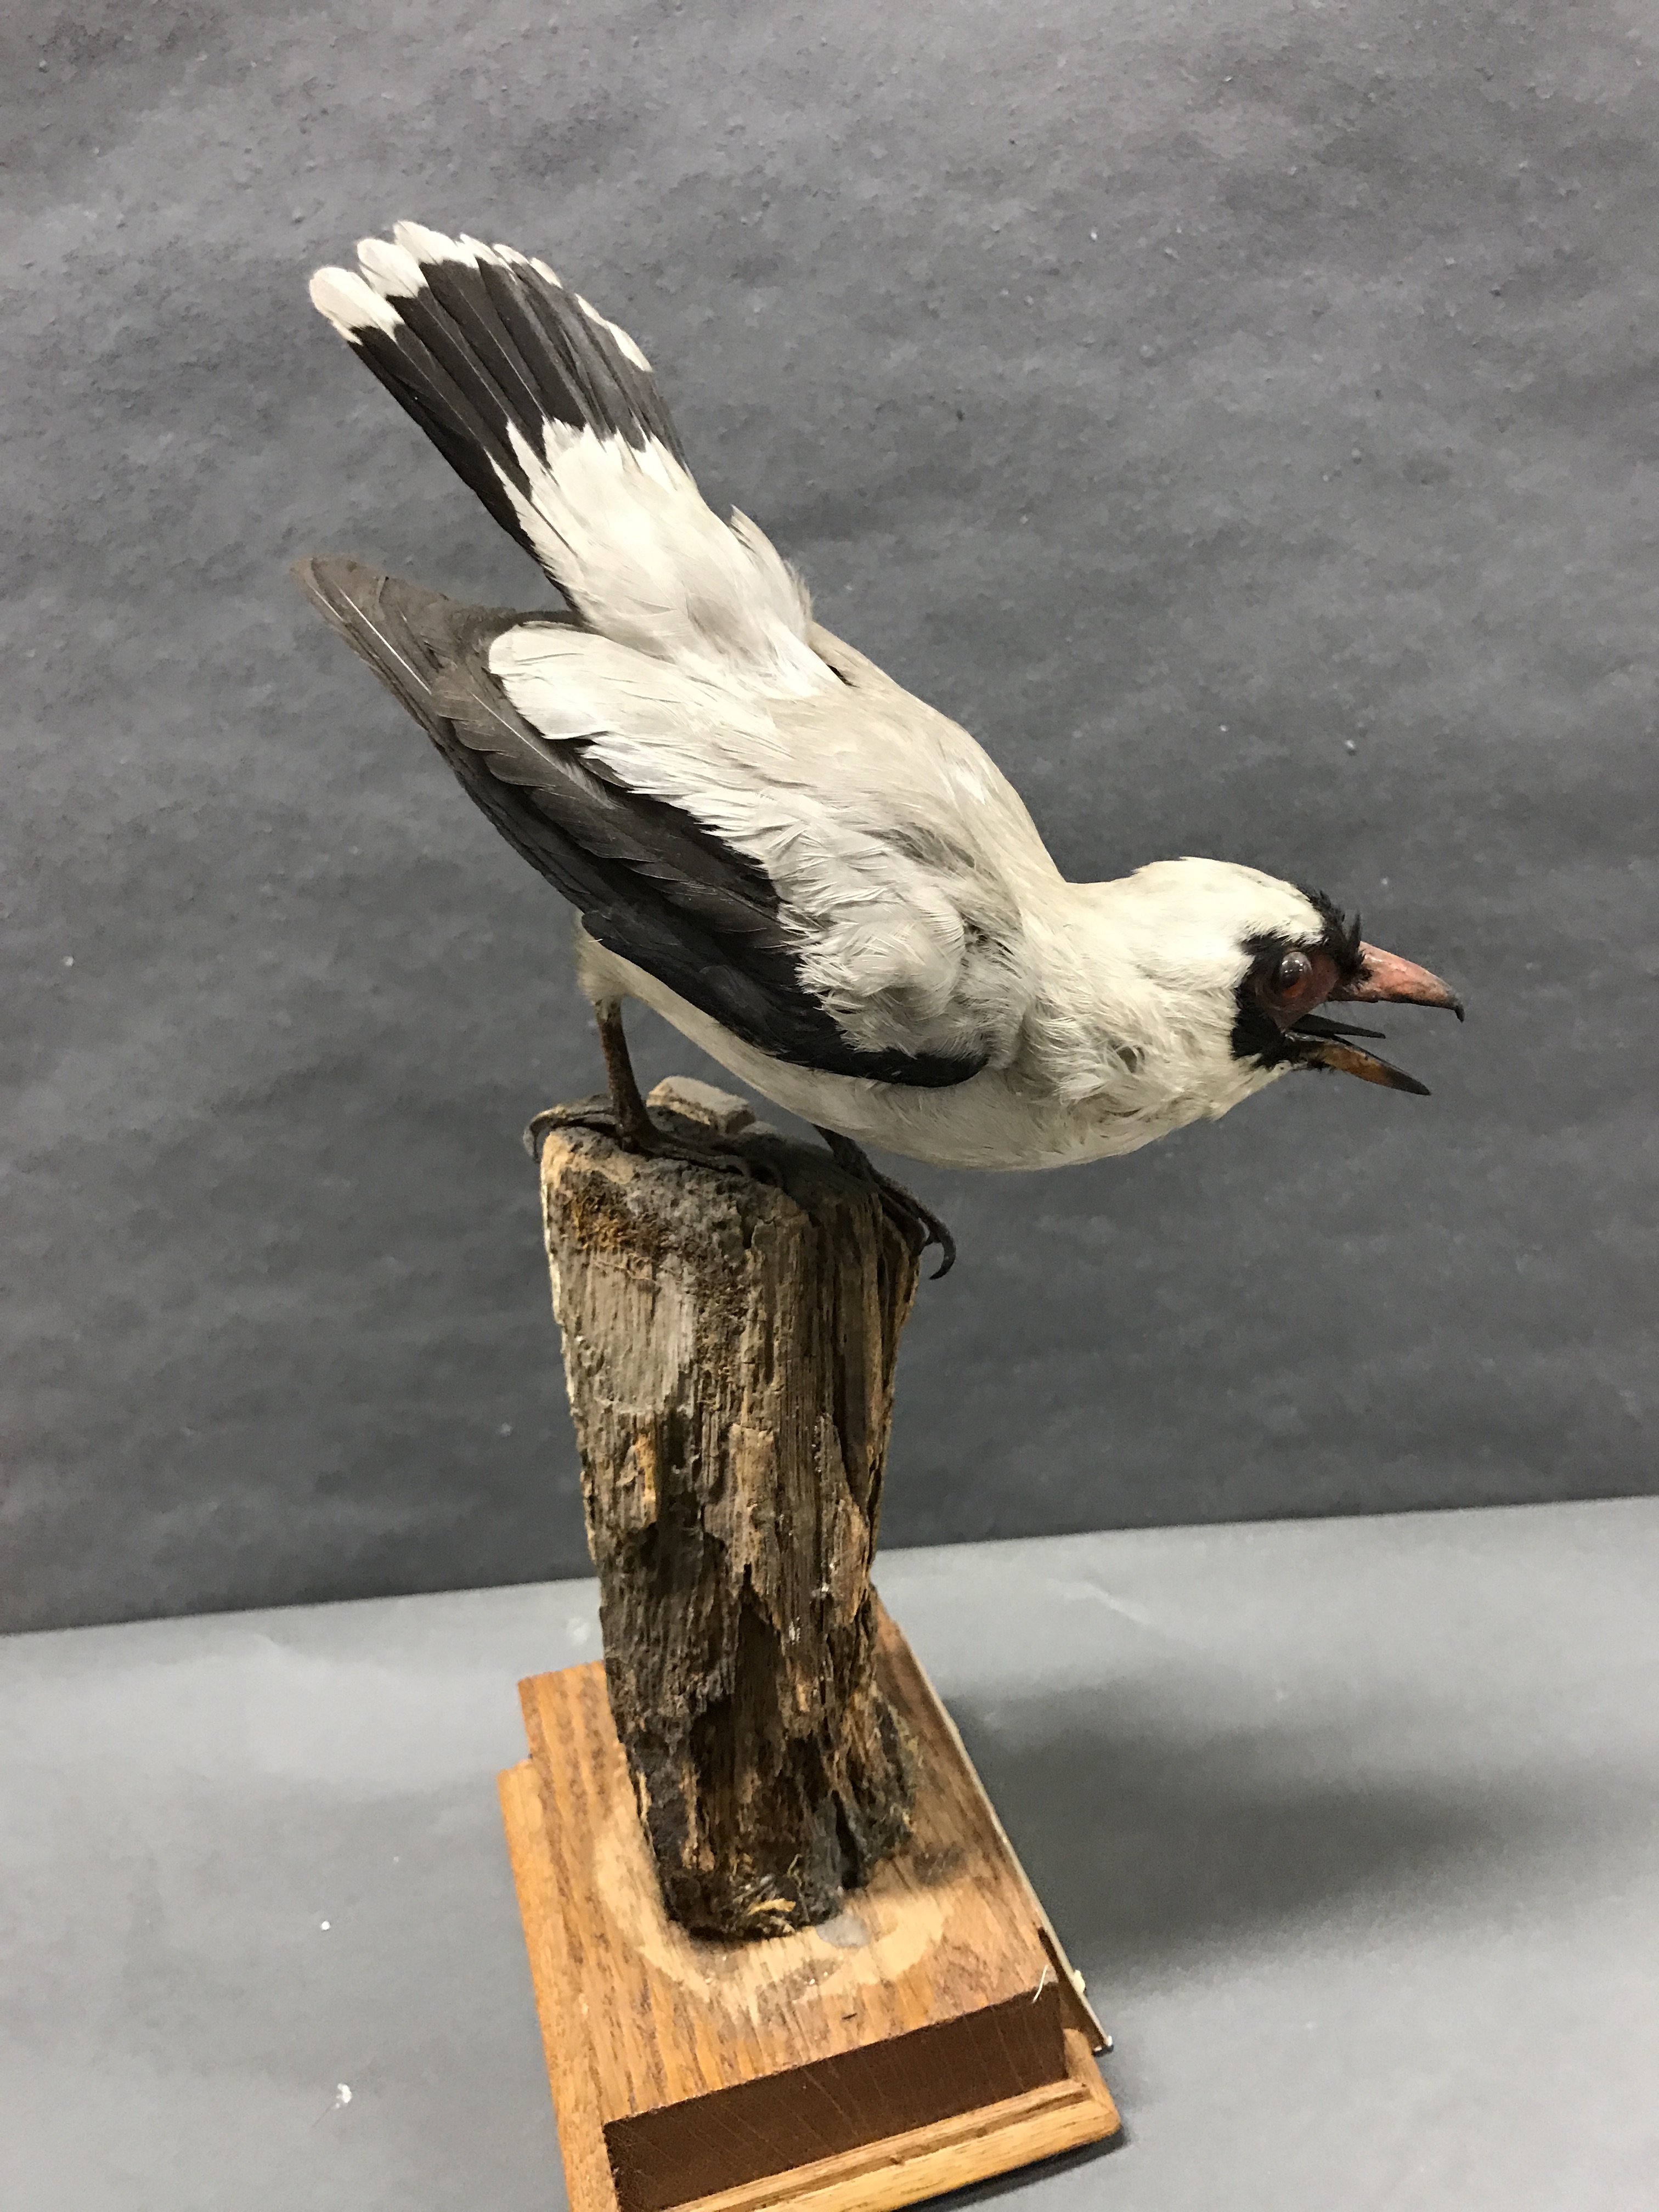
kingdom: Animalia
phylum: Chordata
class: Aves
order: Passeriformes
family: Cotingidae
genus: Tityra
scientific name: Tityra semifasciata
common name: Masked tityra
